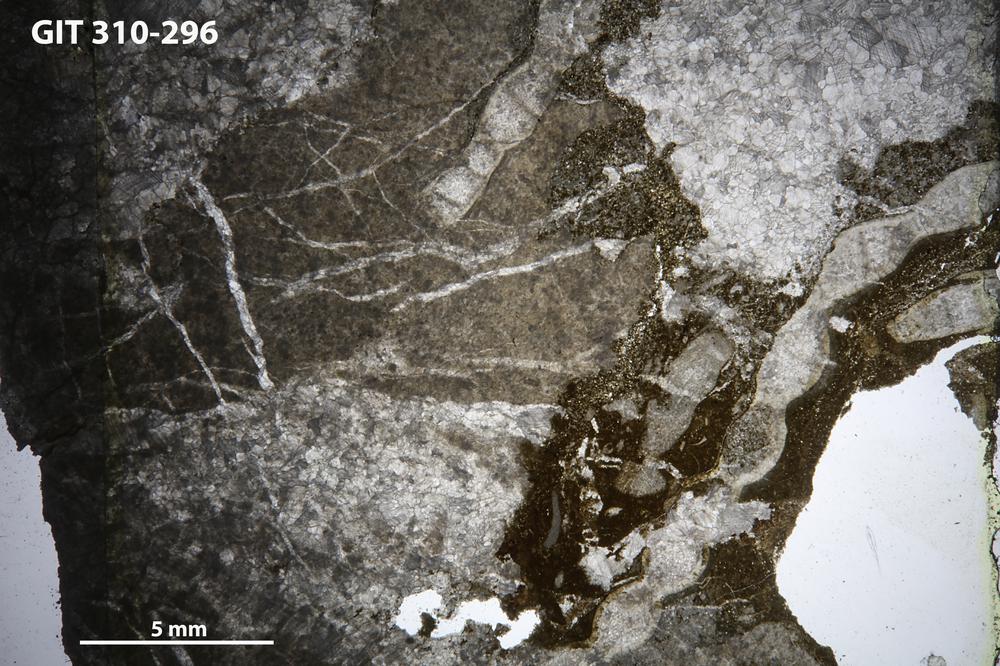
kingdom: Animalia
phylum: Cnidaria
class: Anthozoa
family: Halysitidae
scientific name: Halysitidae
